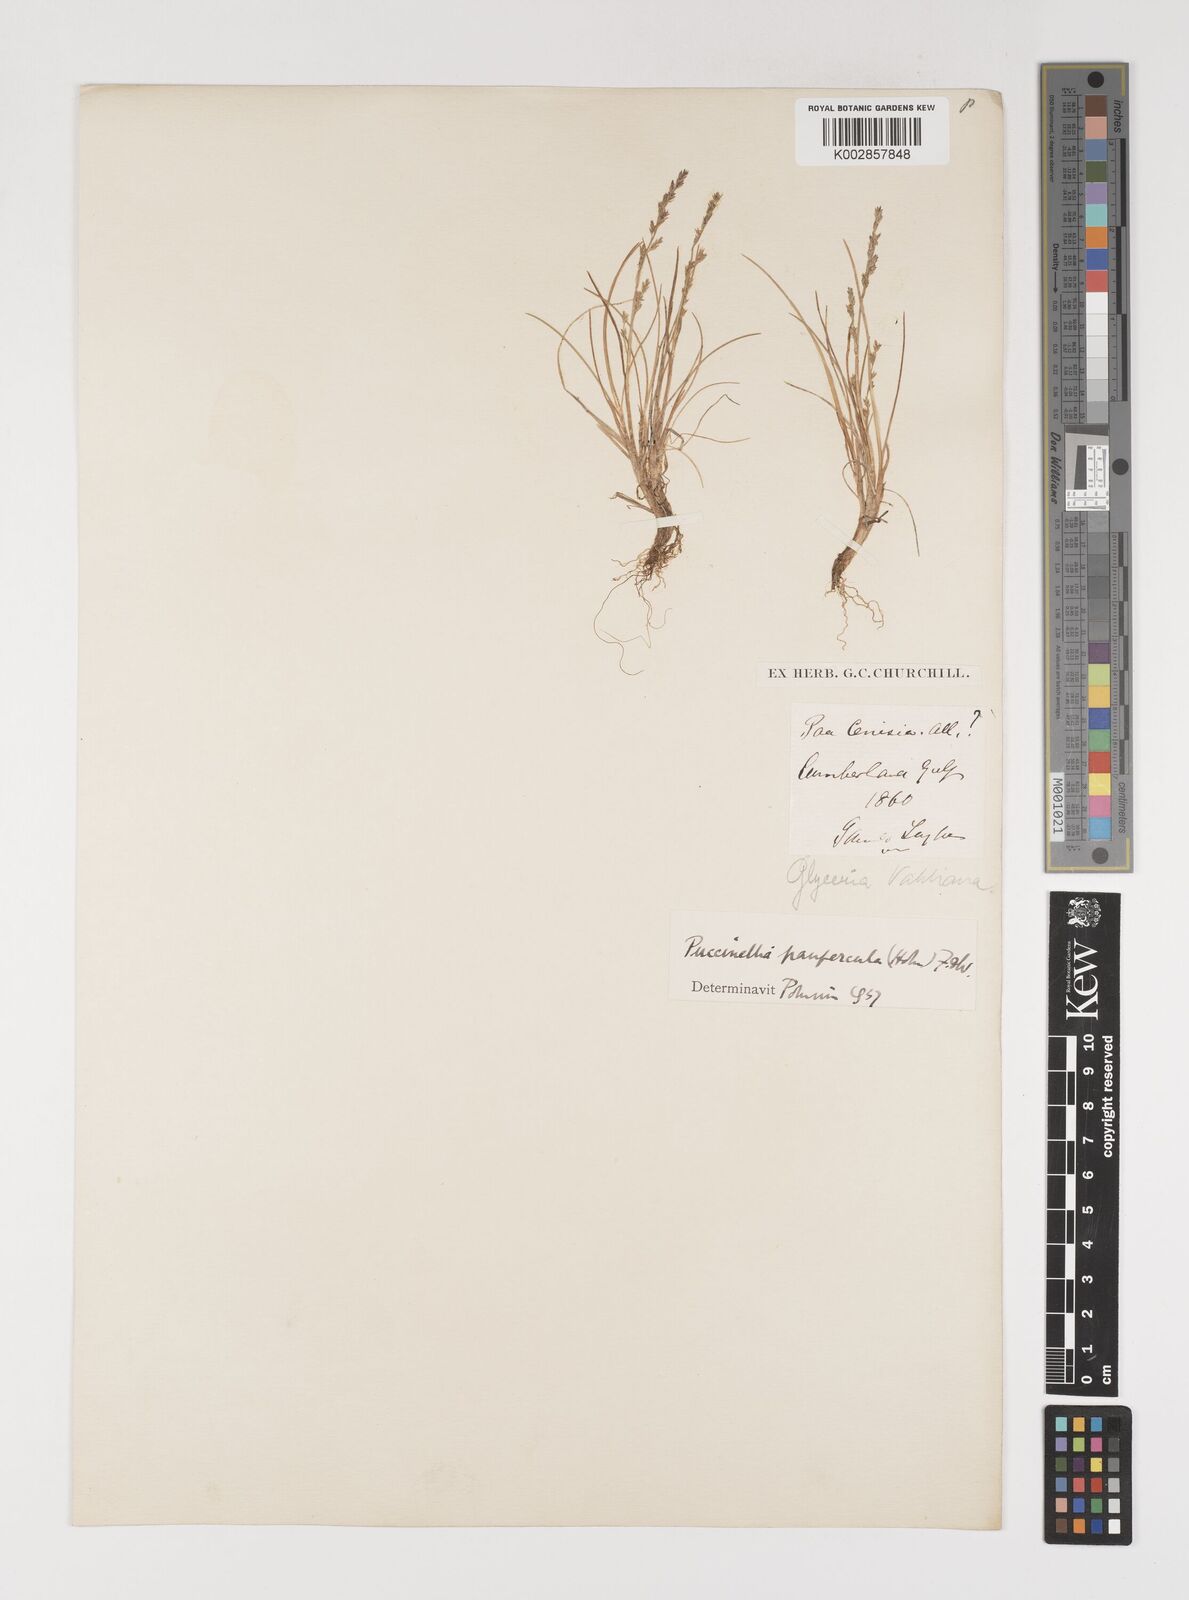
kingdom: Plantae
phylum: Tracheophyta
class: Liliopsida
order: Poales
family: Poaceae
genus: Puccinellia
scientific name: Puccinellia tenella
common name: Tundra alkaligrass
